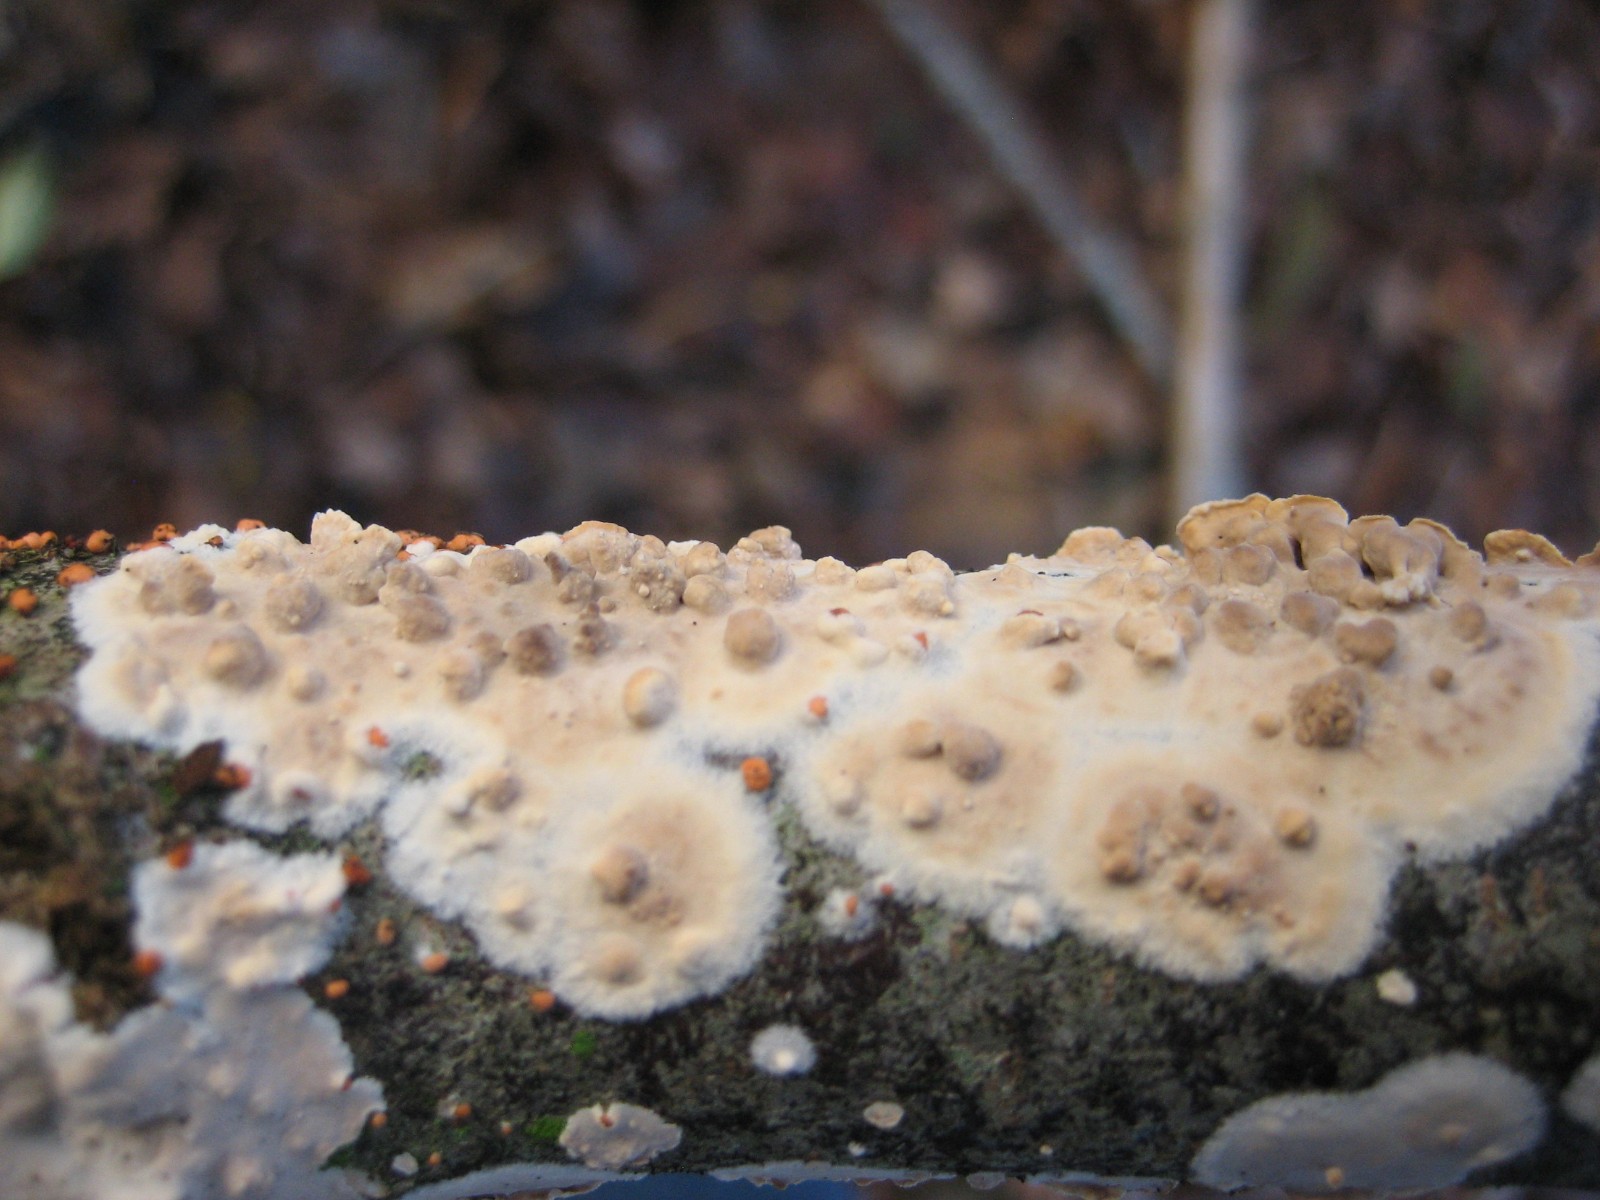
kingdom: Fungi
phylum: Basidiomycota
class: Agaricomycetes
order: Polyporales
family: Irpicaceae
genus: Byssomerulius
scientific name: Byssomerulius corium
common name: læder-åresvamp
